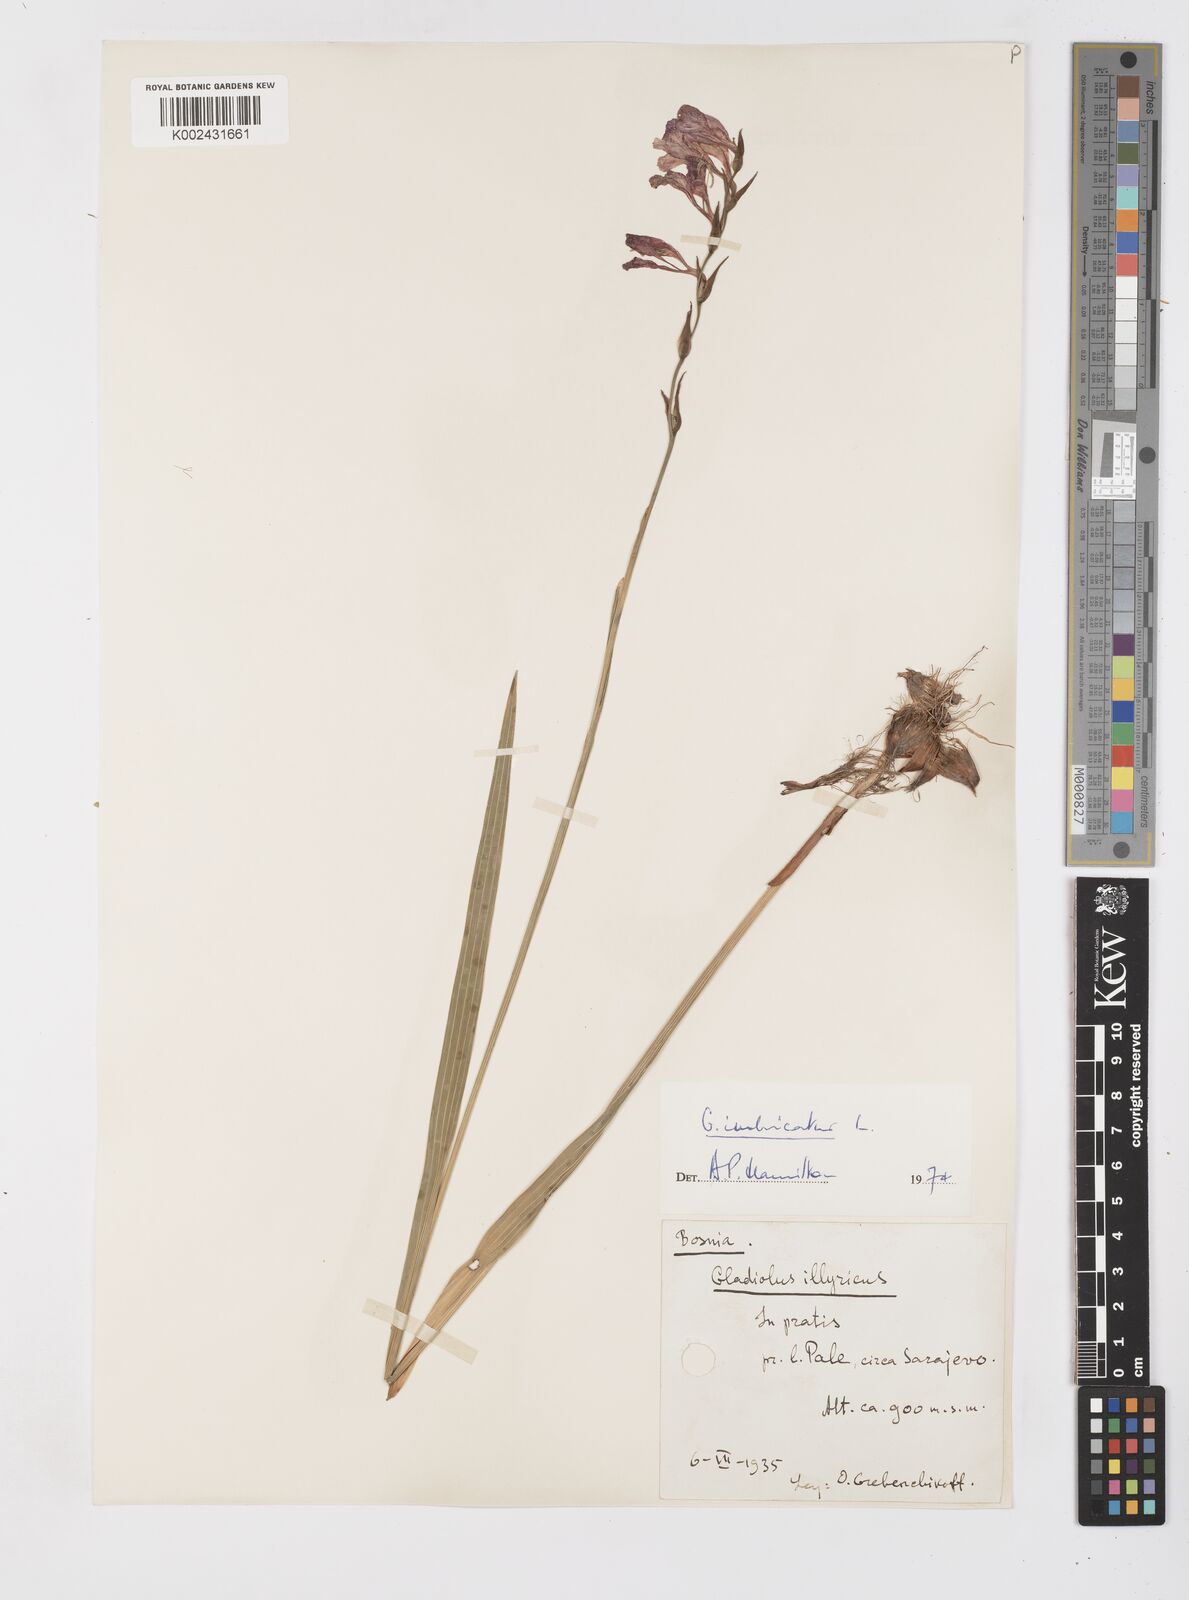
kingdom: Plantae
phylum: Tracheophyta
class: Liliopsida
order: Asparagales
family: Iridaceae
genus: Gladiolus
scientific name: Gladiolus imbricatus
